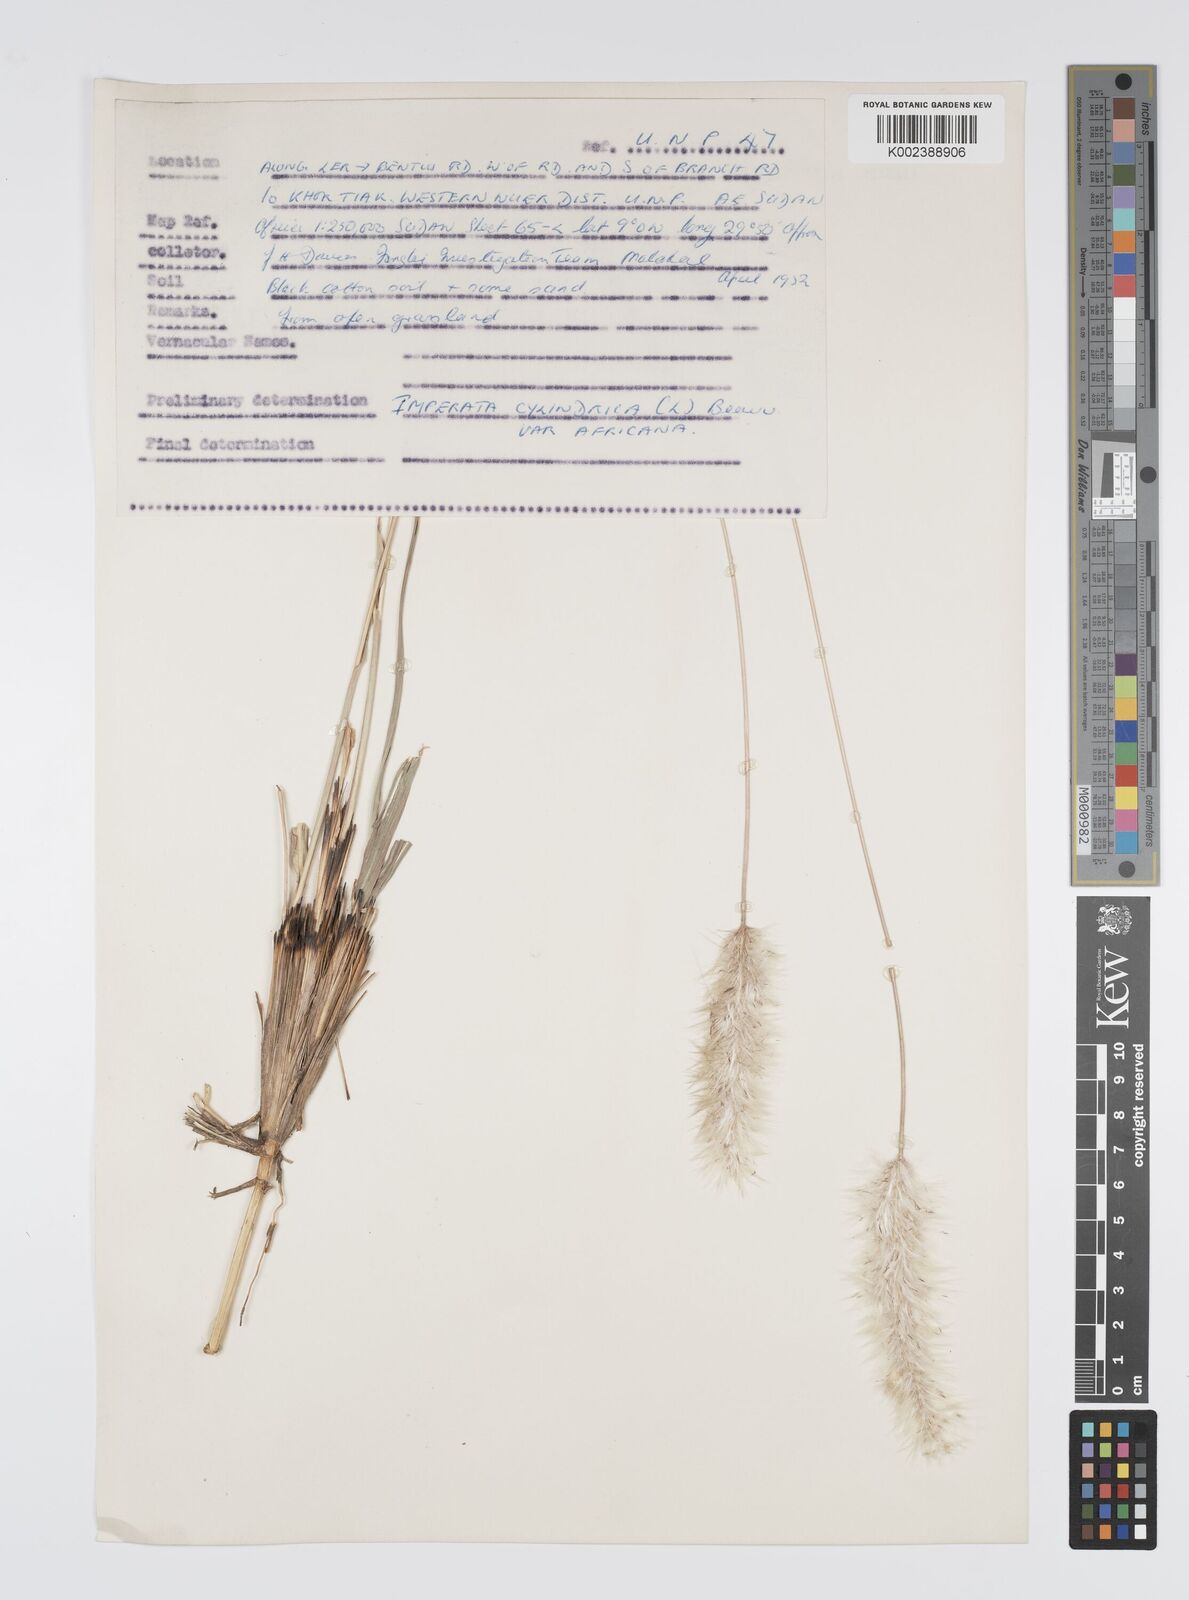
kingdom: Plantae
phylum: Tracheophyta
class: Liliopsida
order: Poales
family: Poaceae
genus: Imperata
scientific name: Imperata cylindrica
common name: Cogongrass
